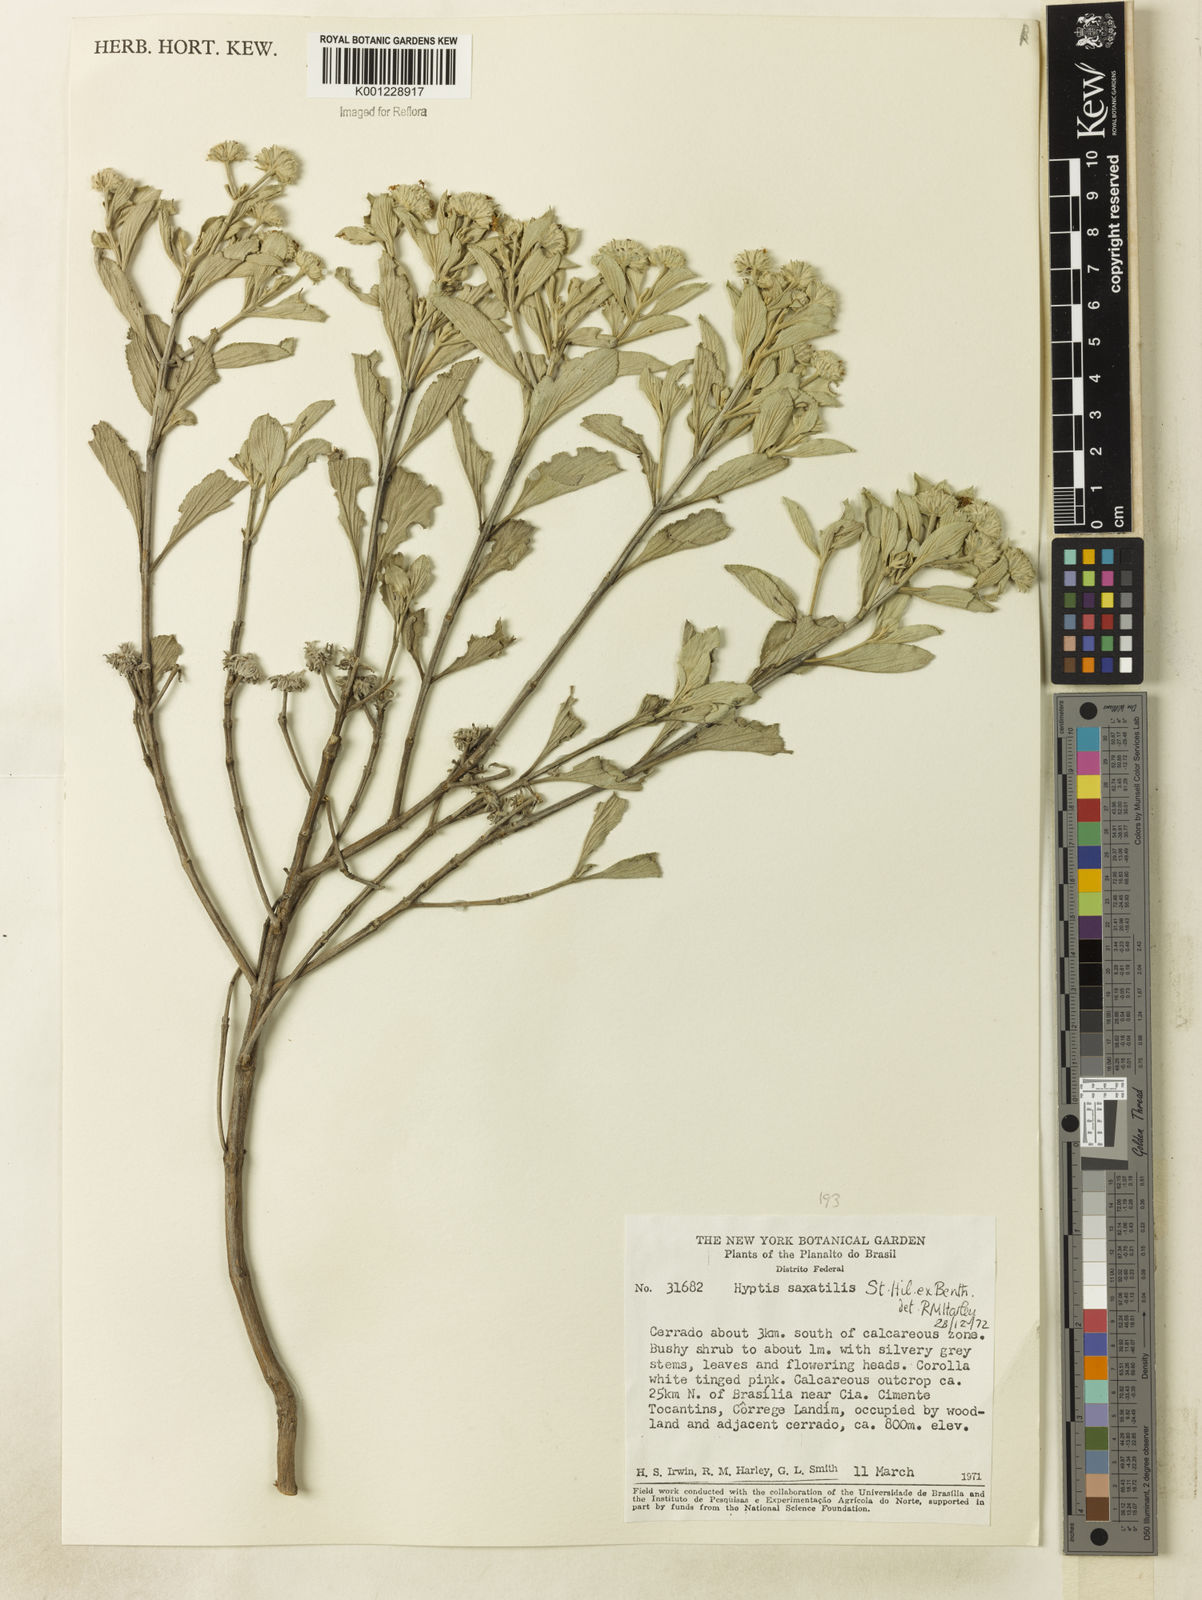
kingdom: Plantae
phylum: Tracheophyta
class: Magnoliopsida
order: Lamiales
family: Lamiaceae
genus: Hyptis
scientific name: Hyptis saxatilis
